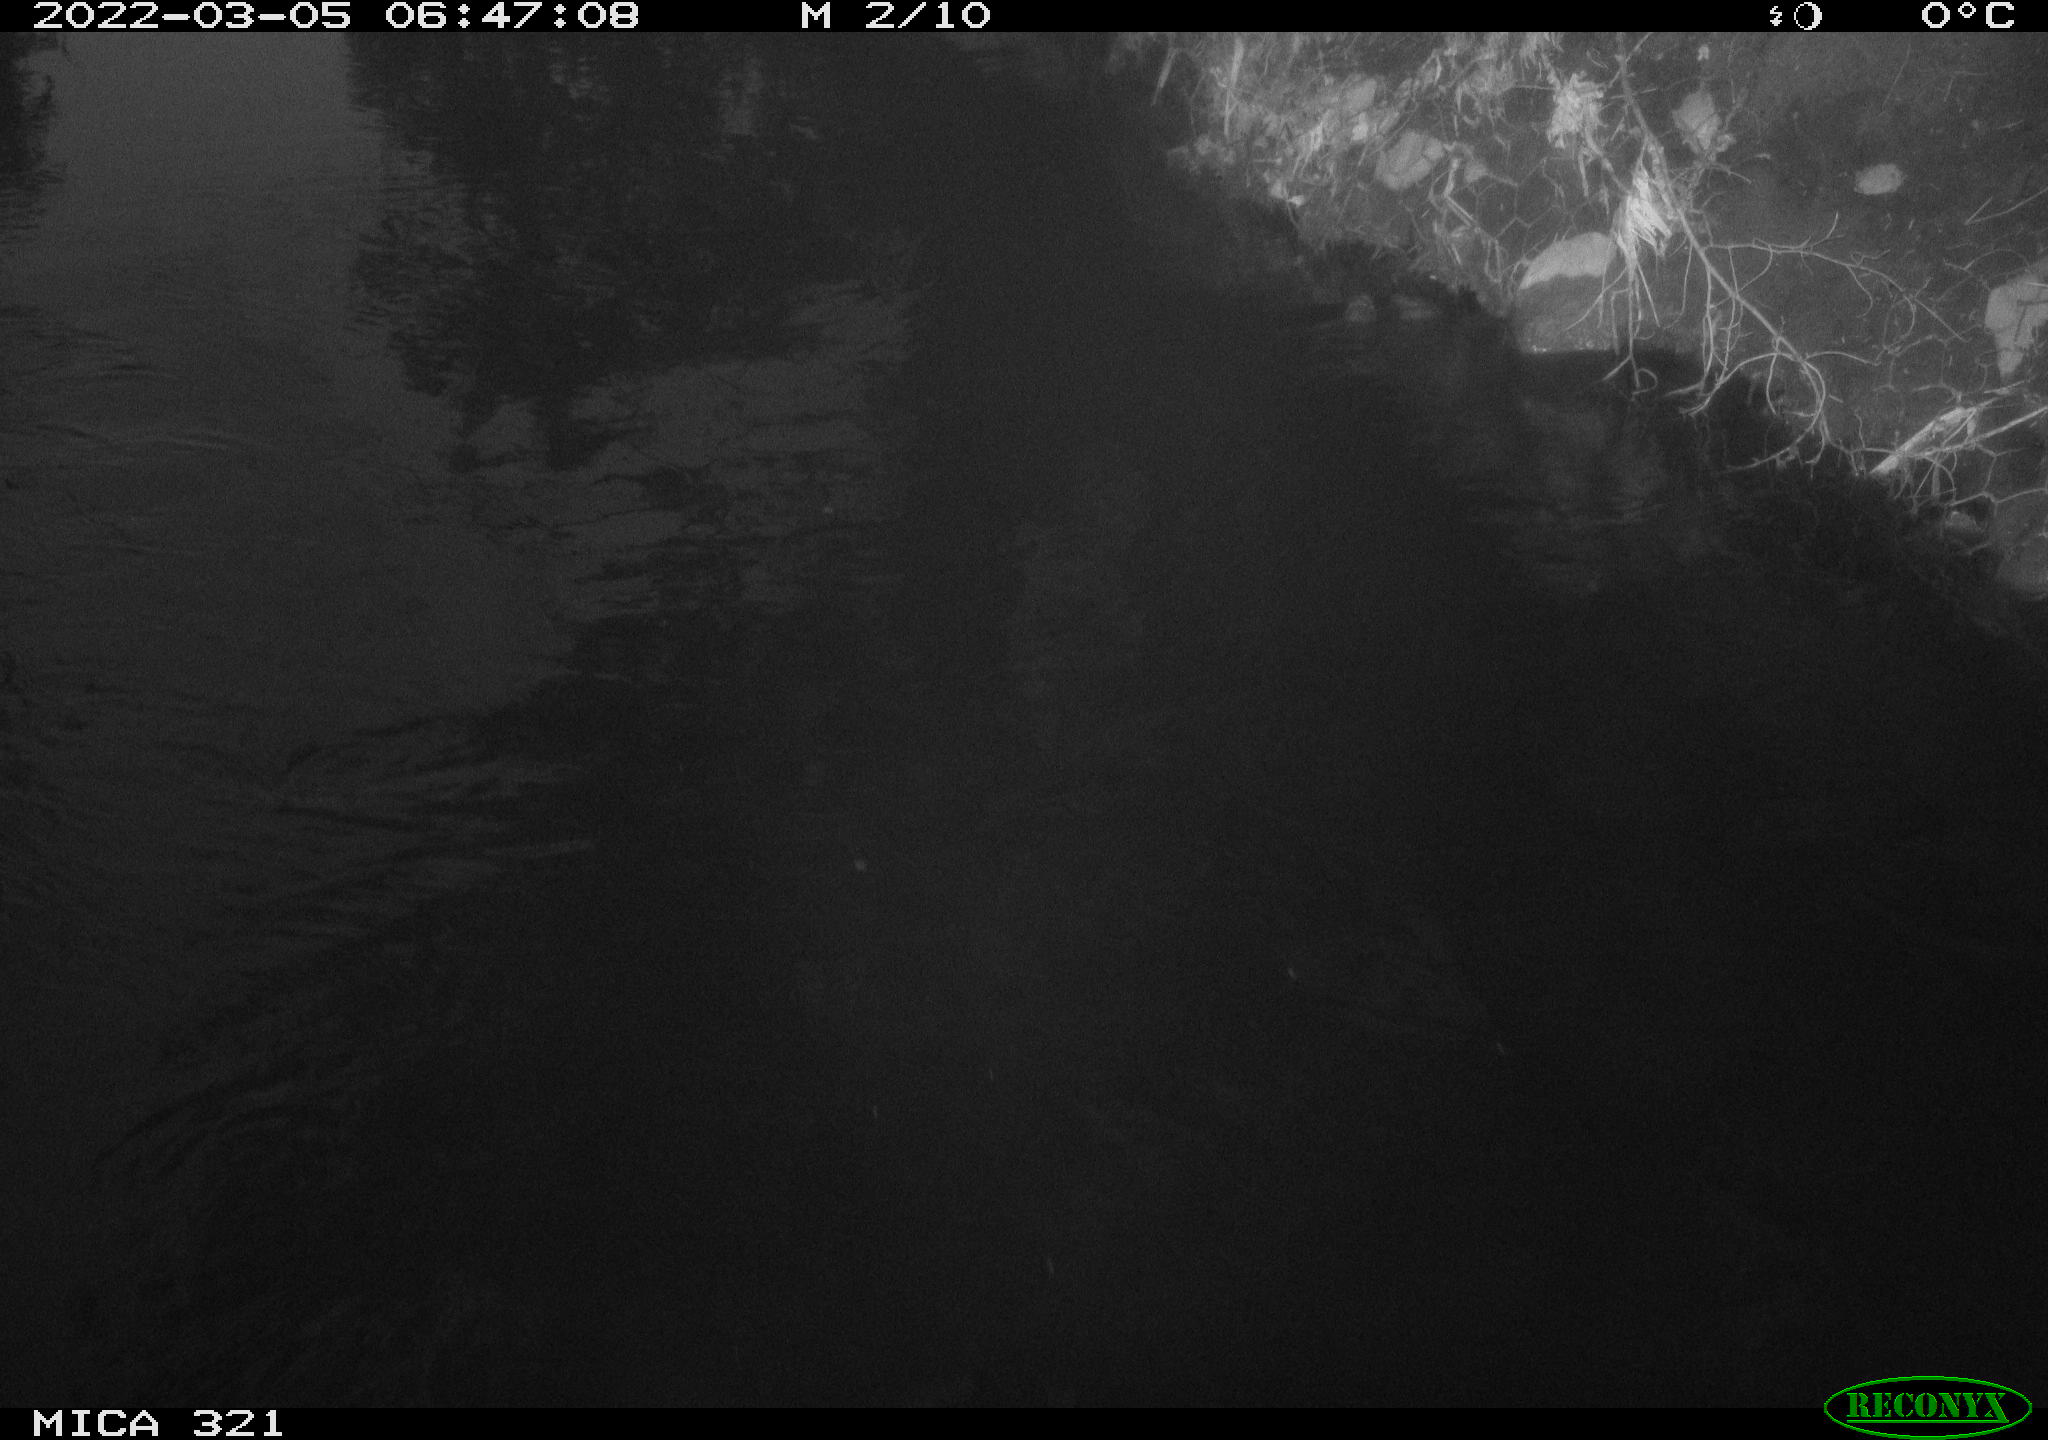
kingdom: Animalia
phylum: Chordata
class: Aves
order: Anseriformes
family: Anatidae
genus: Anas
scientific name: Anas platyrhynchos
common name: Mallard
